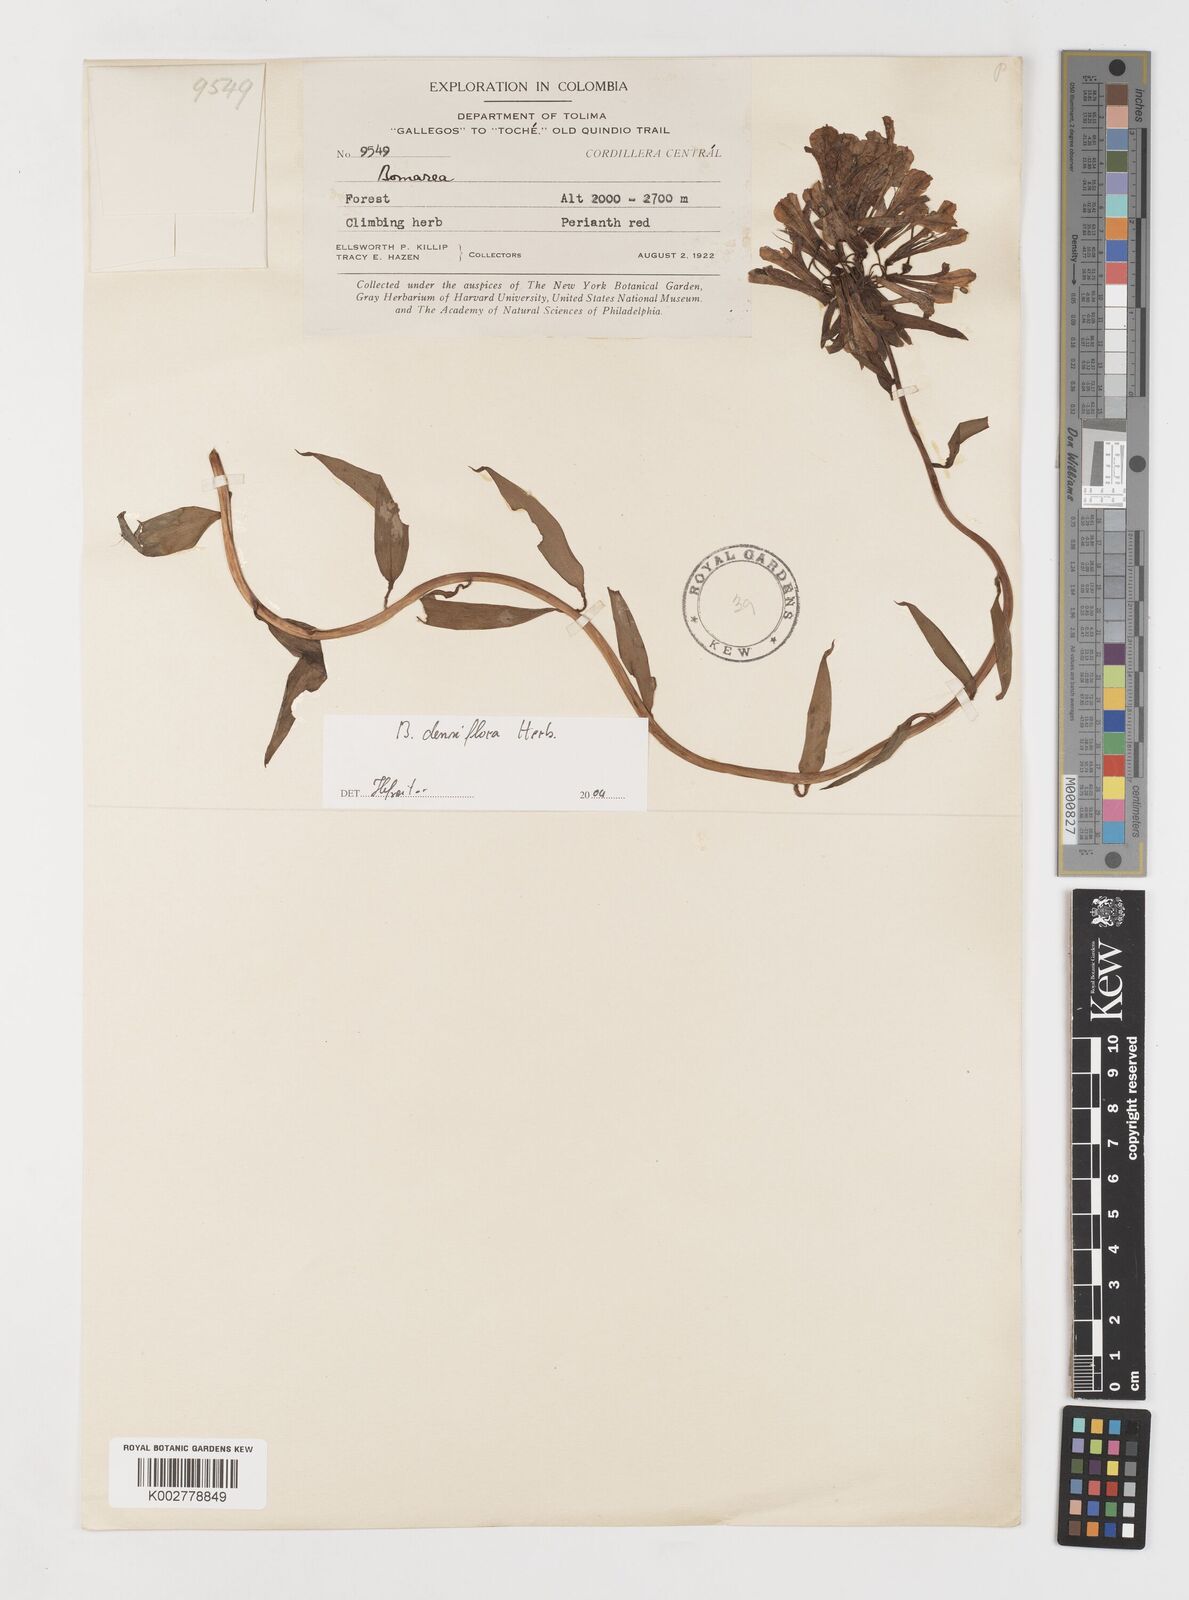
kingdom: Plantae
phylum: Tracheophyta
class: Liliopsida
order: Liliales
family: Alstroemeriaceae
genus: Bomarea
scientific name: Bomarea densiflora
